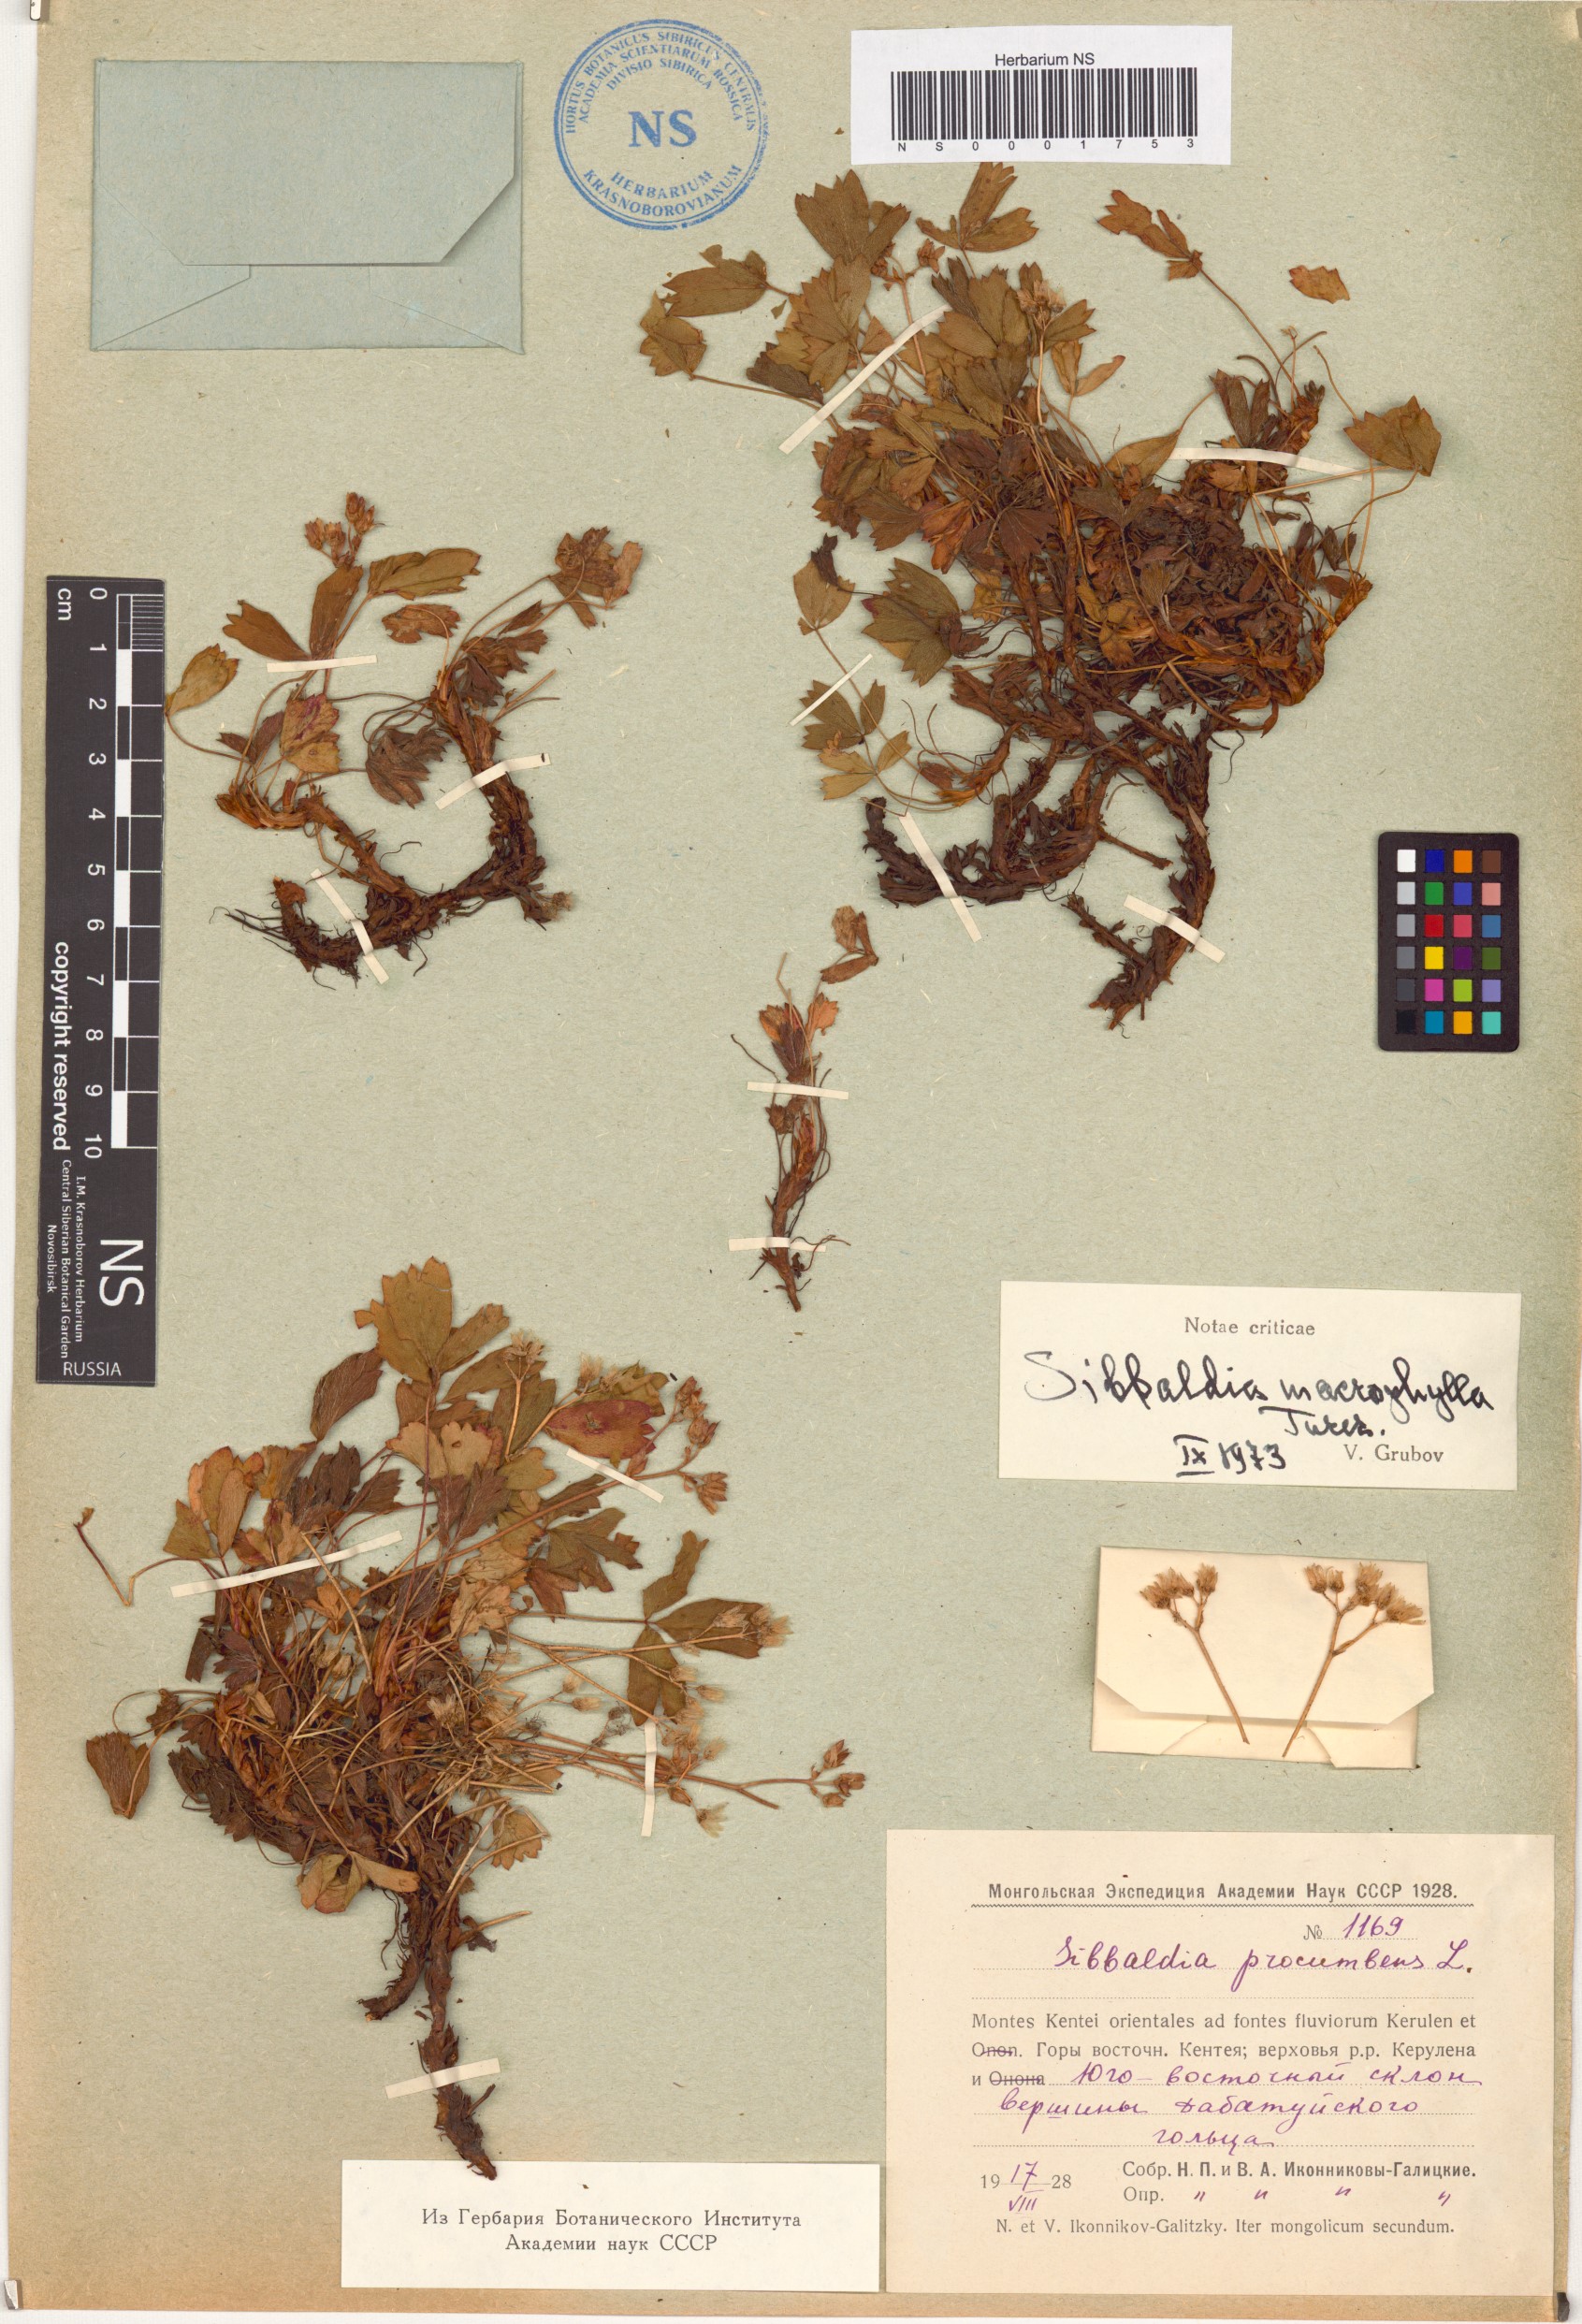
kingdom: Plantae
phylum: Tracheophyta
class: Magnoliopsida
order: Rosales
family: Rosaceae
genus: Sibbaldia
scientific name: Sibbaldia procumbens
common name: Creeping sibbaldia
